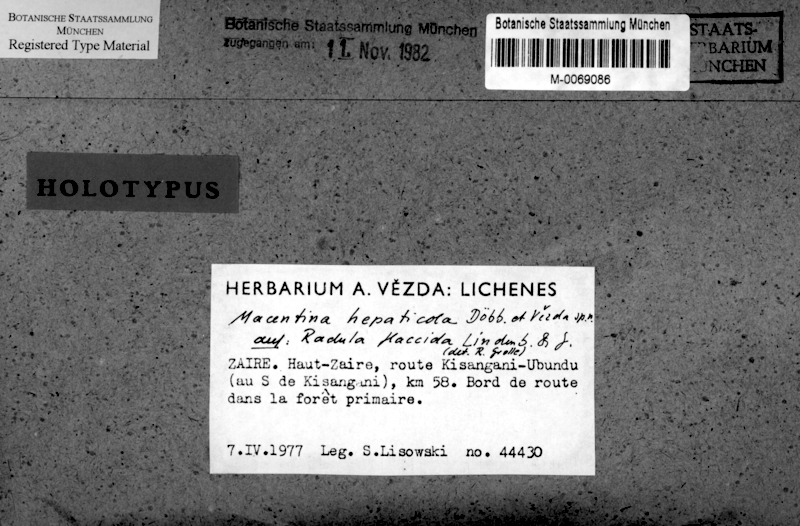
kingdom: Fungi
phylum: Ascomycota
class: Eurotiomycetes
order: Verrucariales
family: Verrucariaceae
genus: Psoroglaena
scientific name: Psoroglaena hepaticicola
